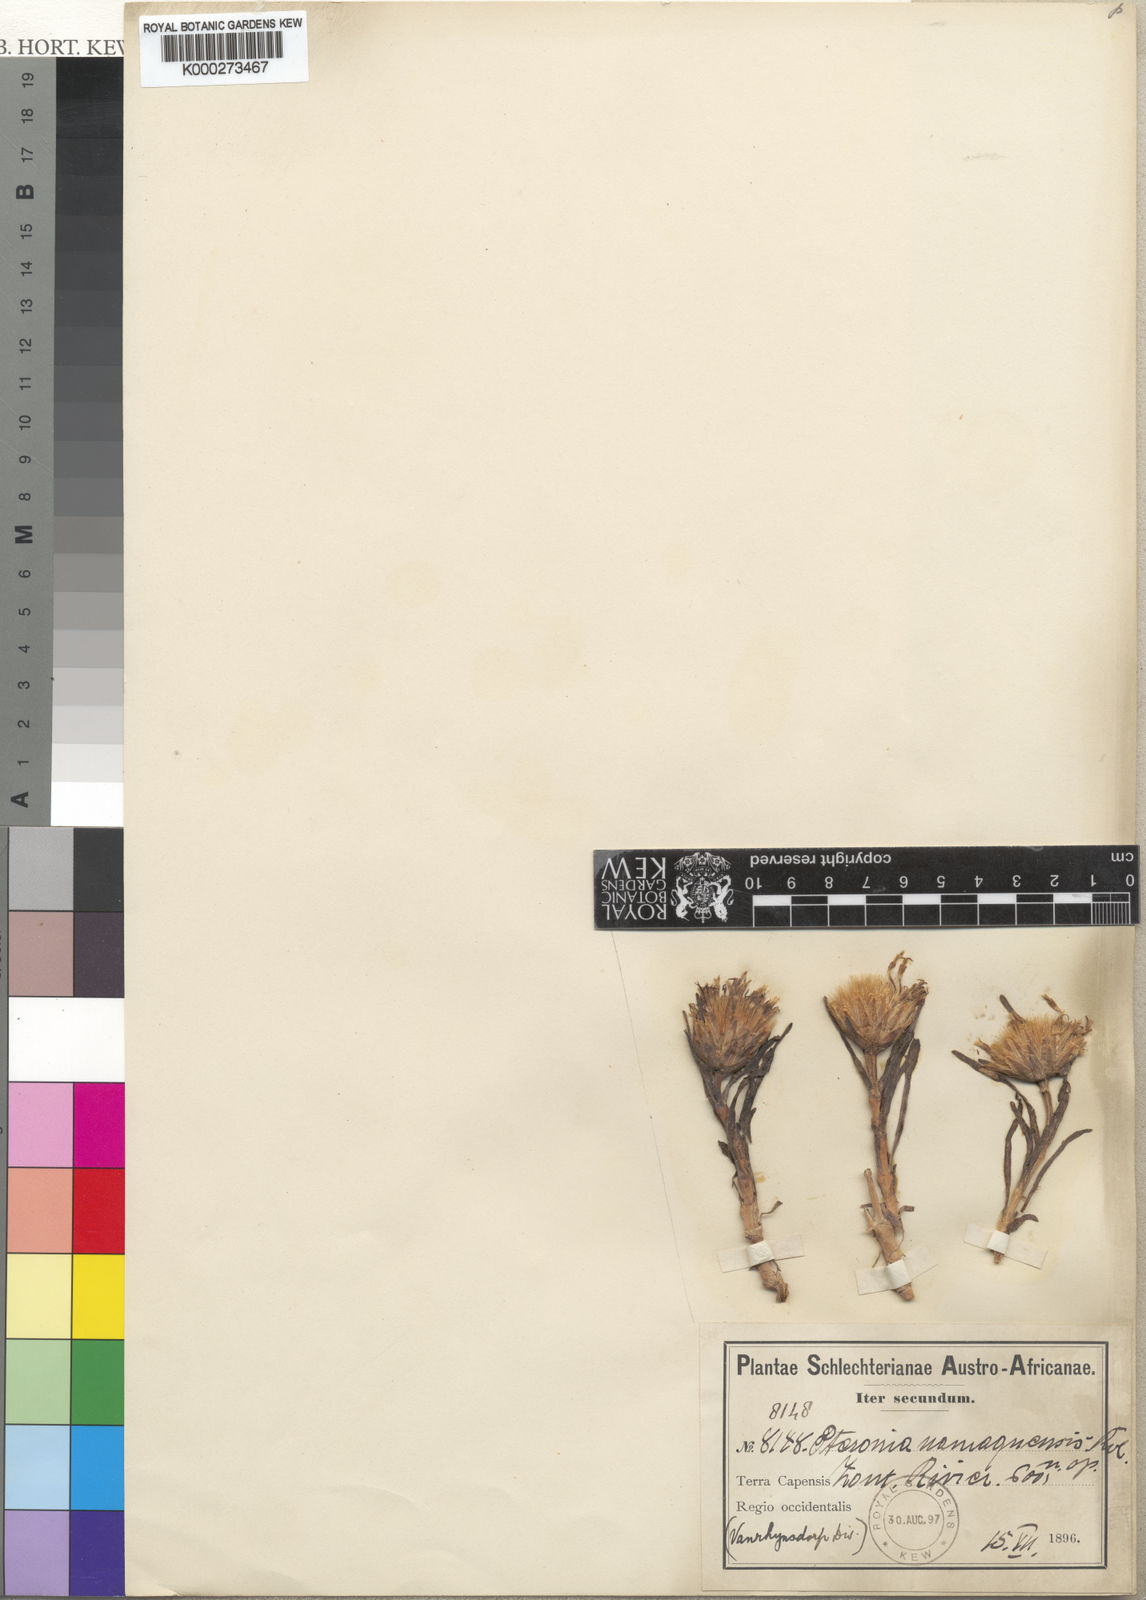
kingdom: Plantae
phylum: Tracheophyta
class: Magnoliopsida
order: Asterales
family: Asteraceae
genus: Pteronia
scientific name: Pteronia heterocarpa
